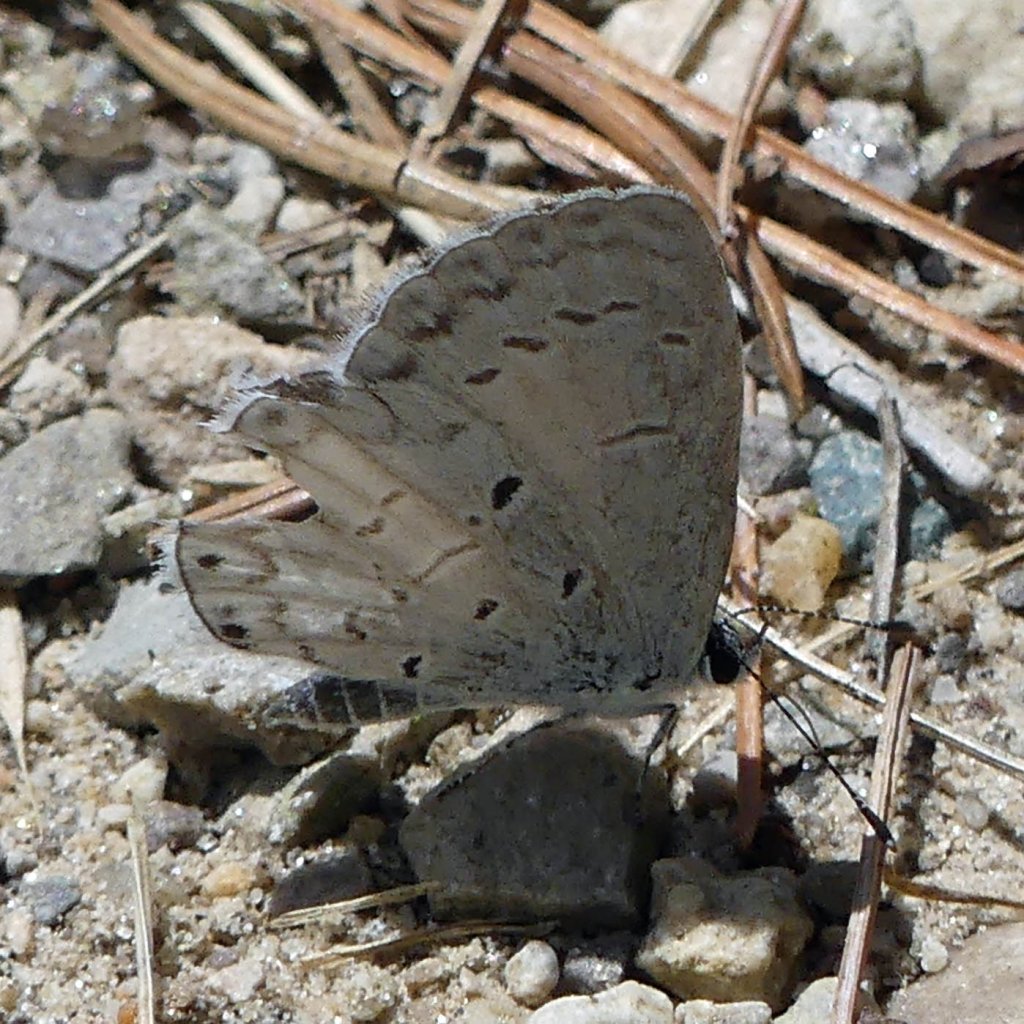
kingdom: Animalia
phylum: Arthropoda
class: Insecta
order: Lepidoptera
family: Lycaenidae
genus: Celastrina
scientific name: Celastrina
